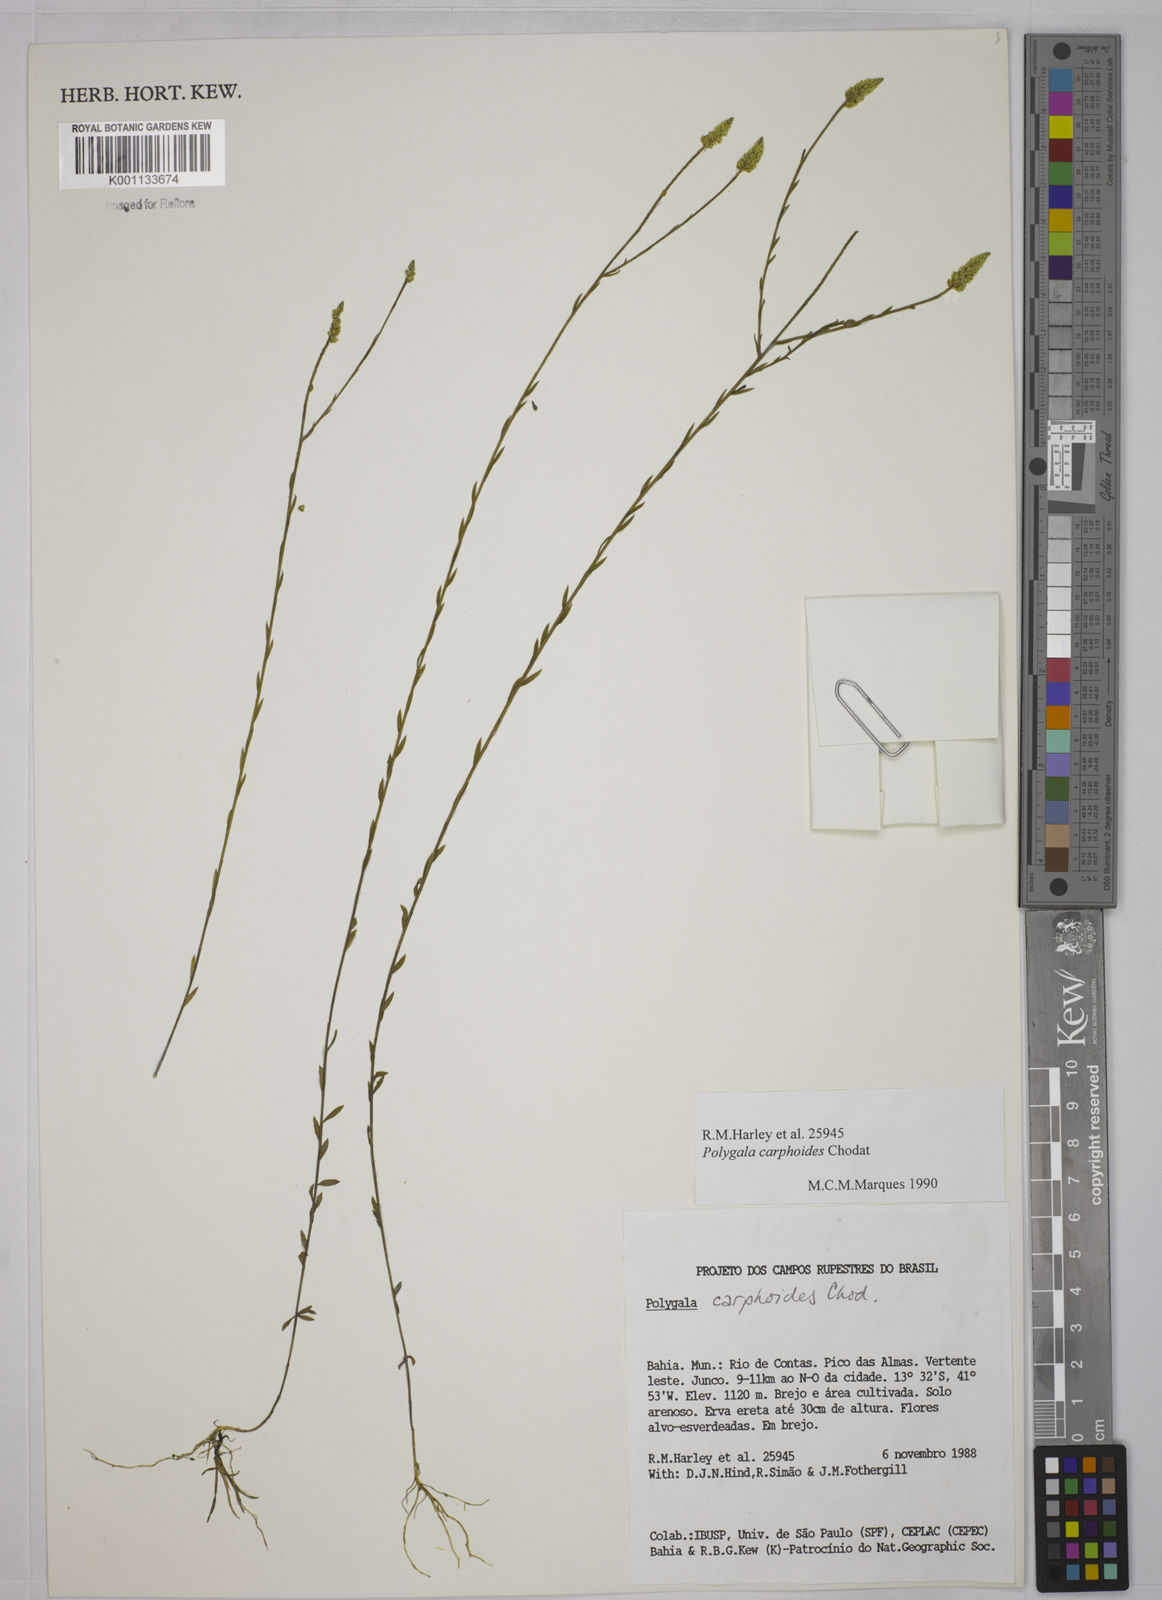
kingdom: Plantae
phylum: Tracheophyta
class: Magnoliopsida
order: Fabales
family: Polygalaceae
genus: Polygala
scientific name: Polygala carphoides
